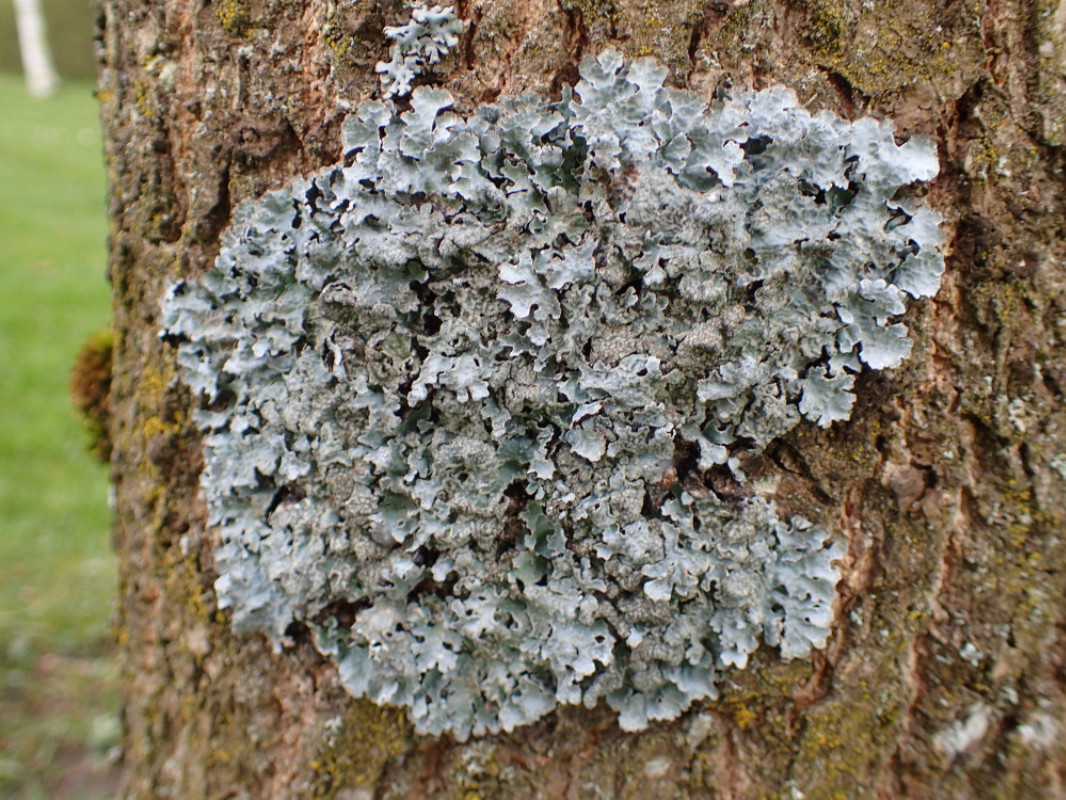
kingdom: Fungi
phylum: Ascomycota
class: Lecanoromycetes
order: Lecanorales
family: Parmeliaceae
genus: Parmelia
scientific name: Parmelia sulcata
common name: rynket skållav
